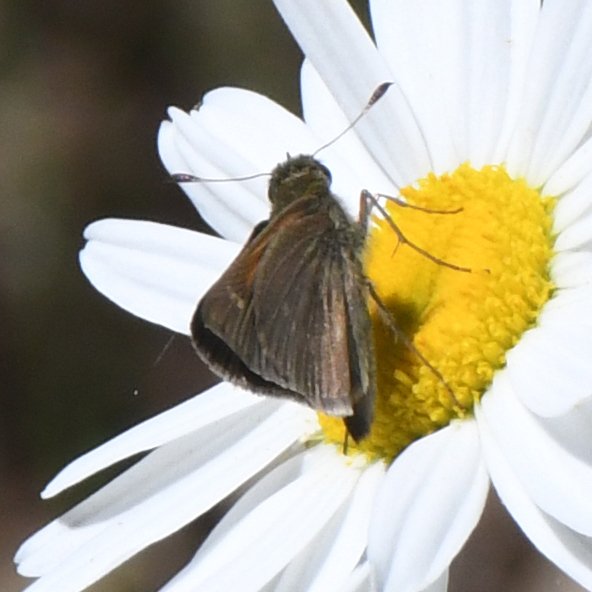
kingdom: Animalia
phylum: Arthropoda
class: Insecta
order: Lepidoptera
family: Hesperiidae
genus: Polites
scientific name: Polites themistocles
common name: Tawny-edged Skipper
